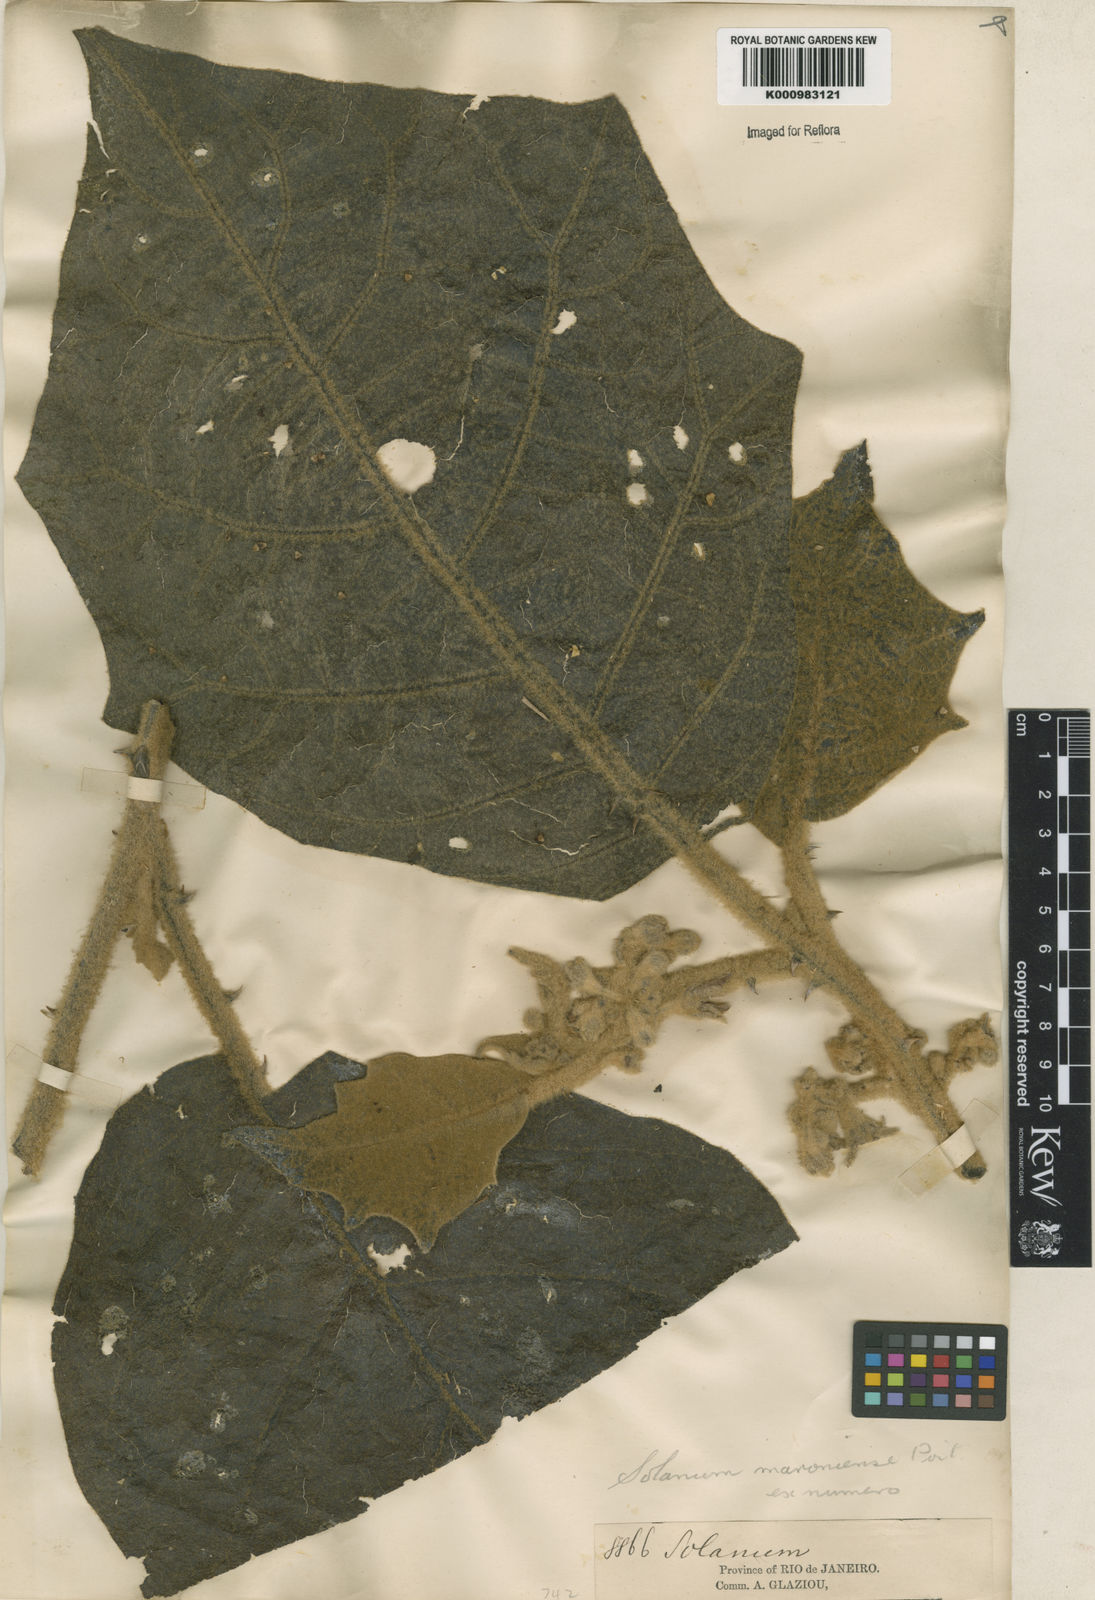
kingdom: Plantae
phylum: Tracheophyta
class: Magnoliopsida
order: Solanales
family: Solanaceae
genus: Solanum
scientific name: Solanum metrobotryon
